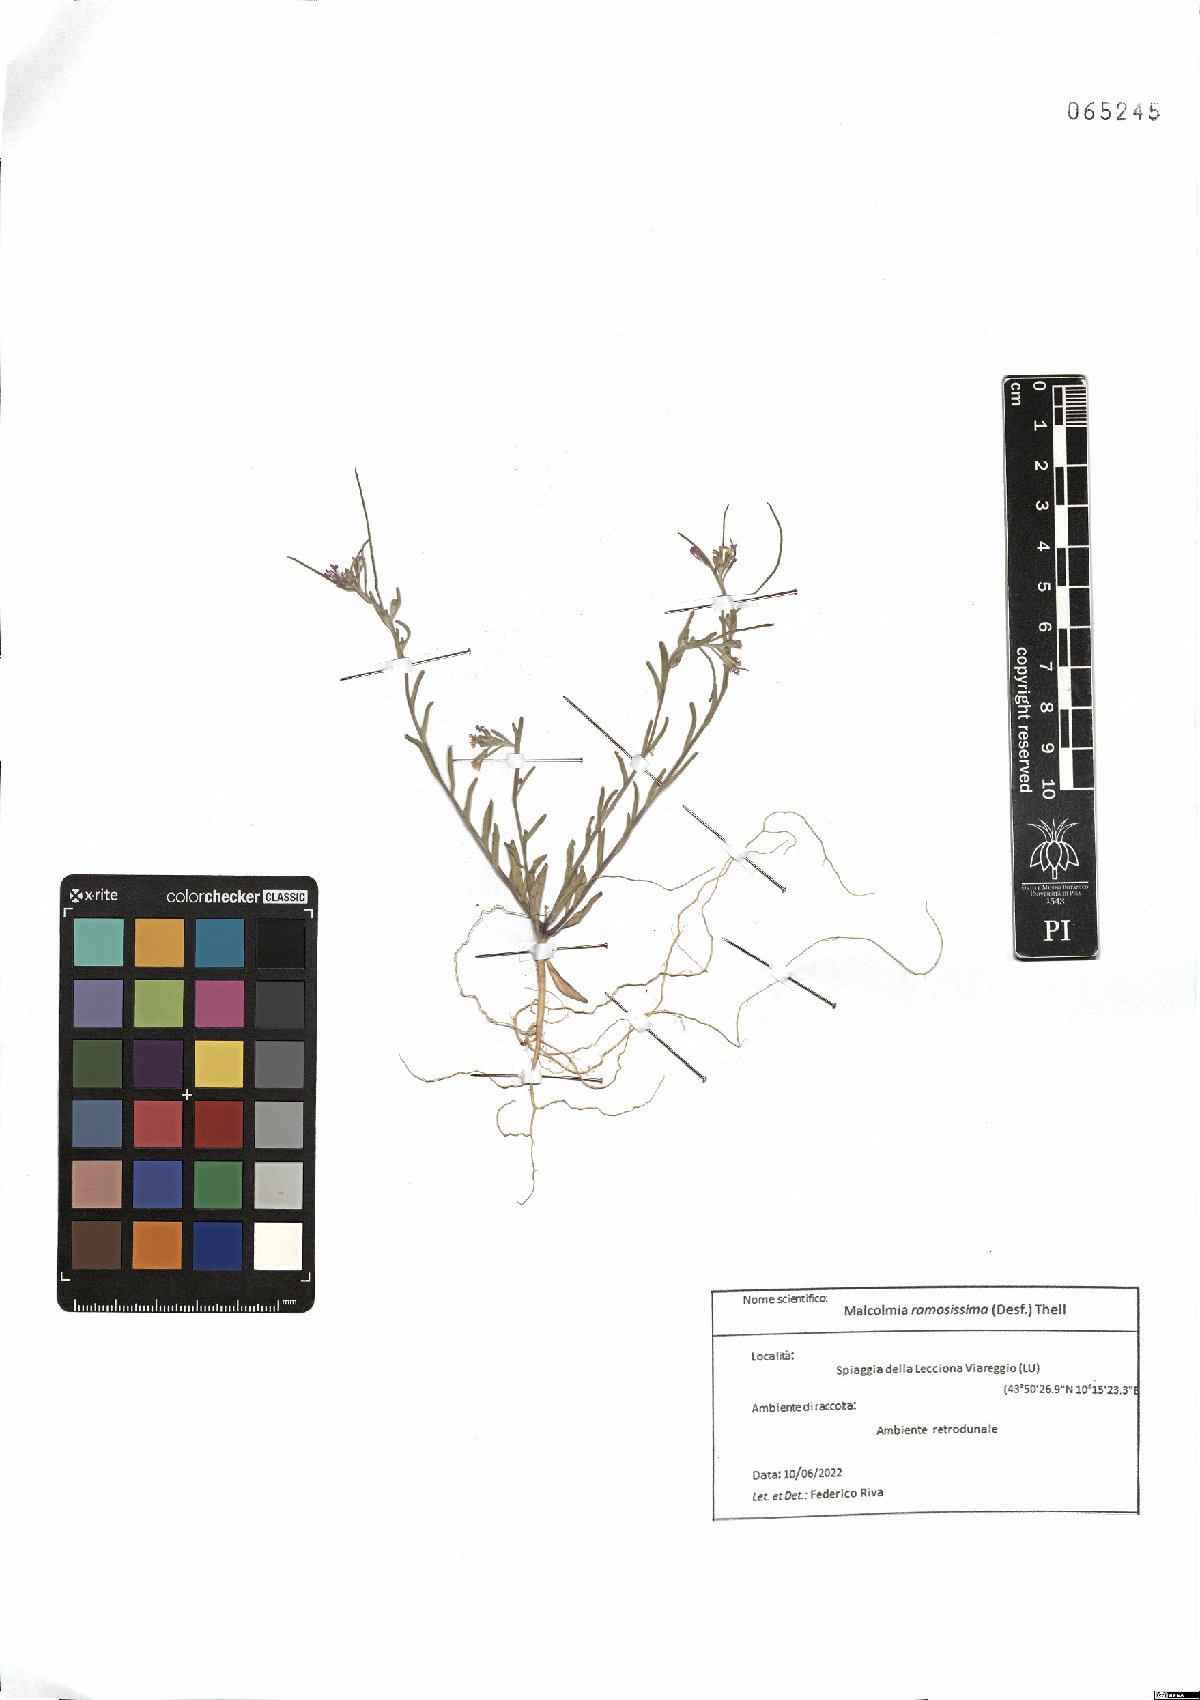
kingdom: Plantae
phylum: Tracheophyta
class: Magnoliopsida
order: Brassicales
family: Brassicaceae
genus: Marcuskochia
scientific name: Marcuskochia ramosissima
